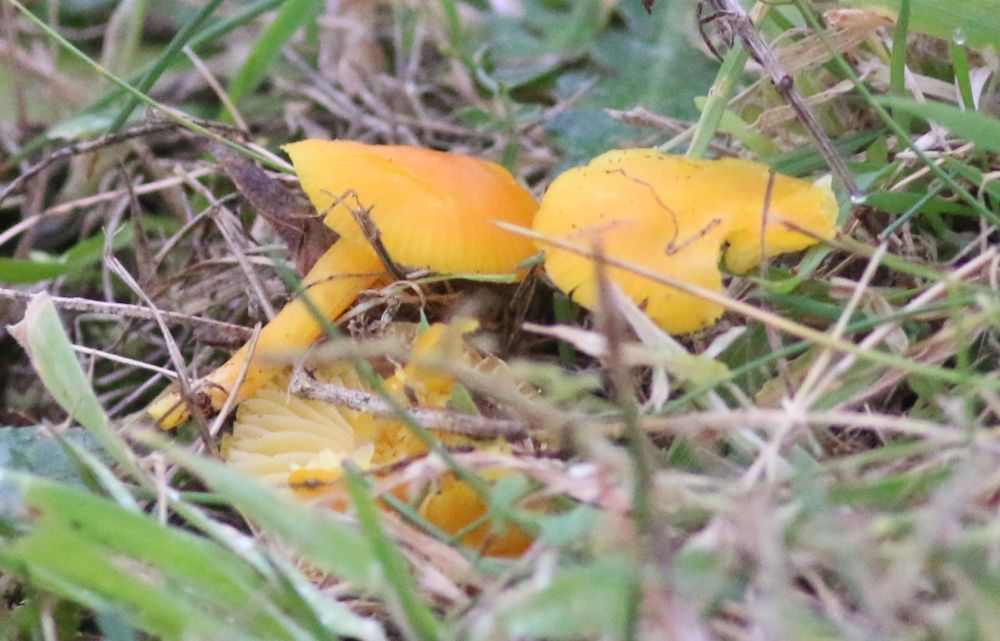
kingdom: Fungi
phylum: Basidiomycota
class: Agaricomycetes
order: Agaricales
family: Hygrophoraceae
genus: Hygrocybe
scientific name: Hygrocybe
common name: vokshat
